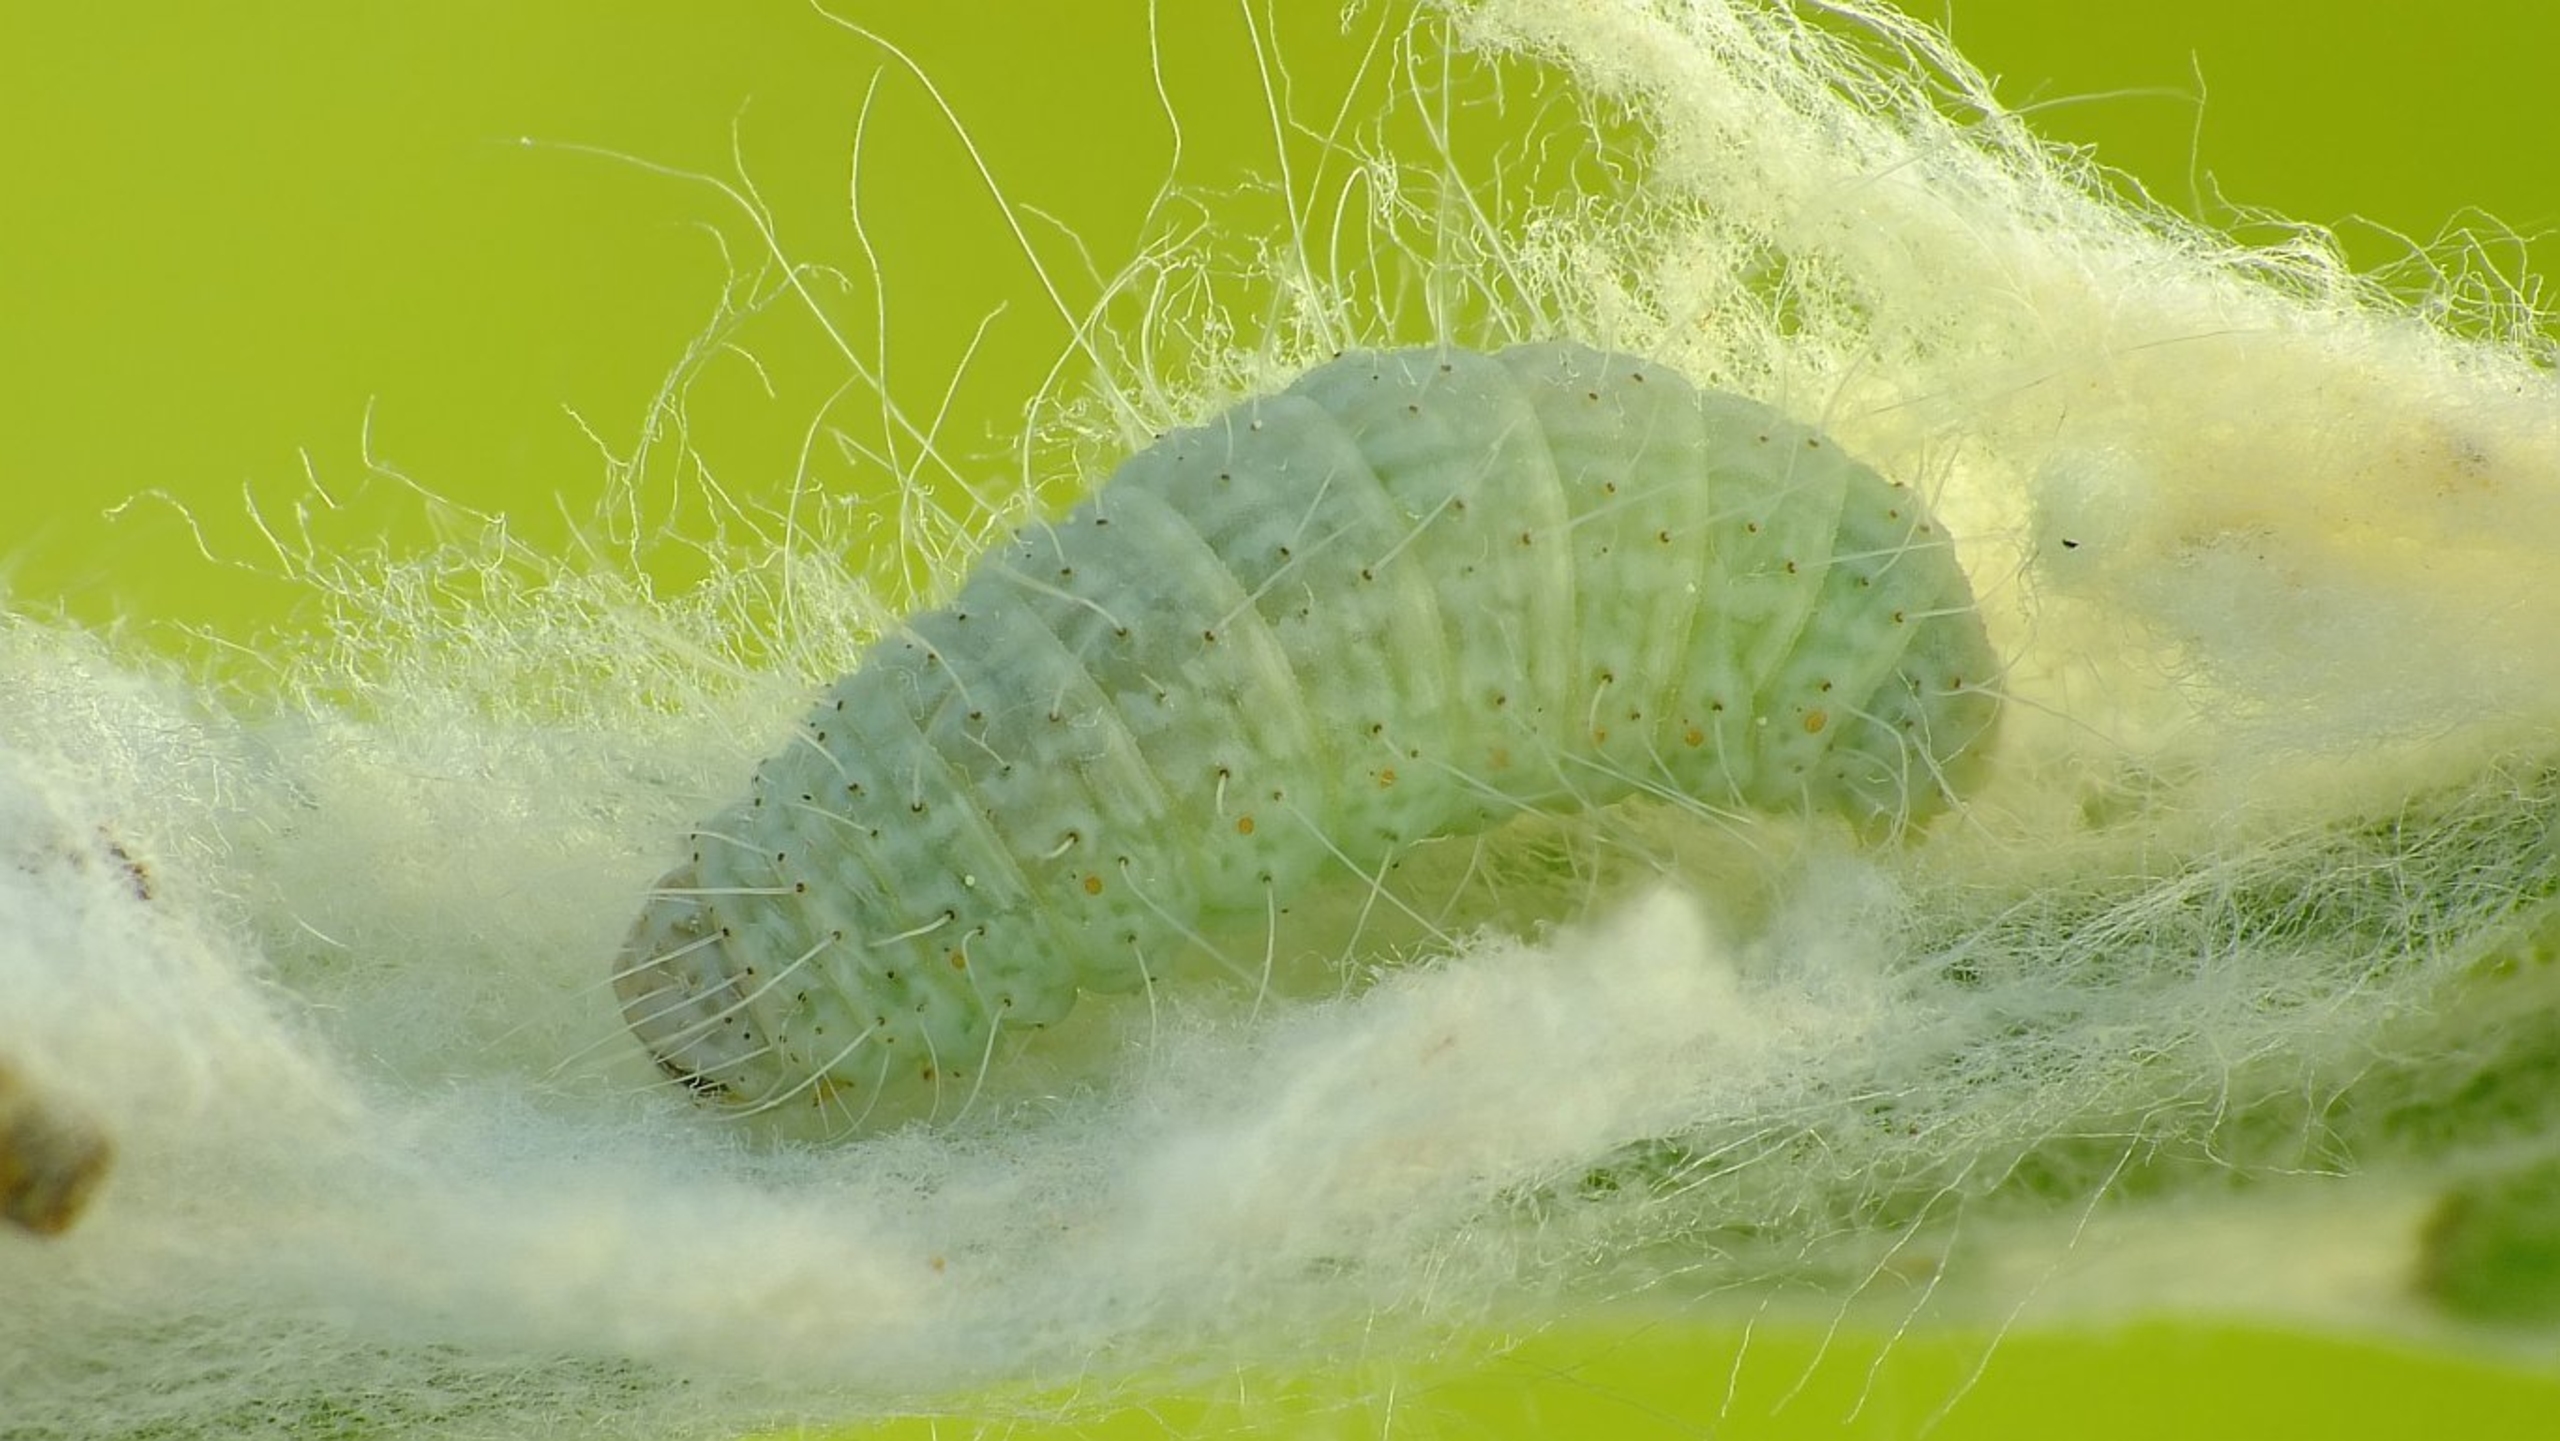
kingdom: Animalia
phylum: Arthropoda
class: Insecta
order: Lepidoptera
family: Noctuidae
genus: Eublemma
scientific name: Eublemma minutata
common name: Evighedsblomst pragtugle
